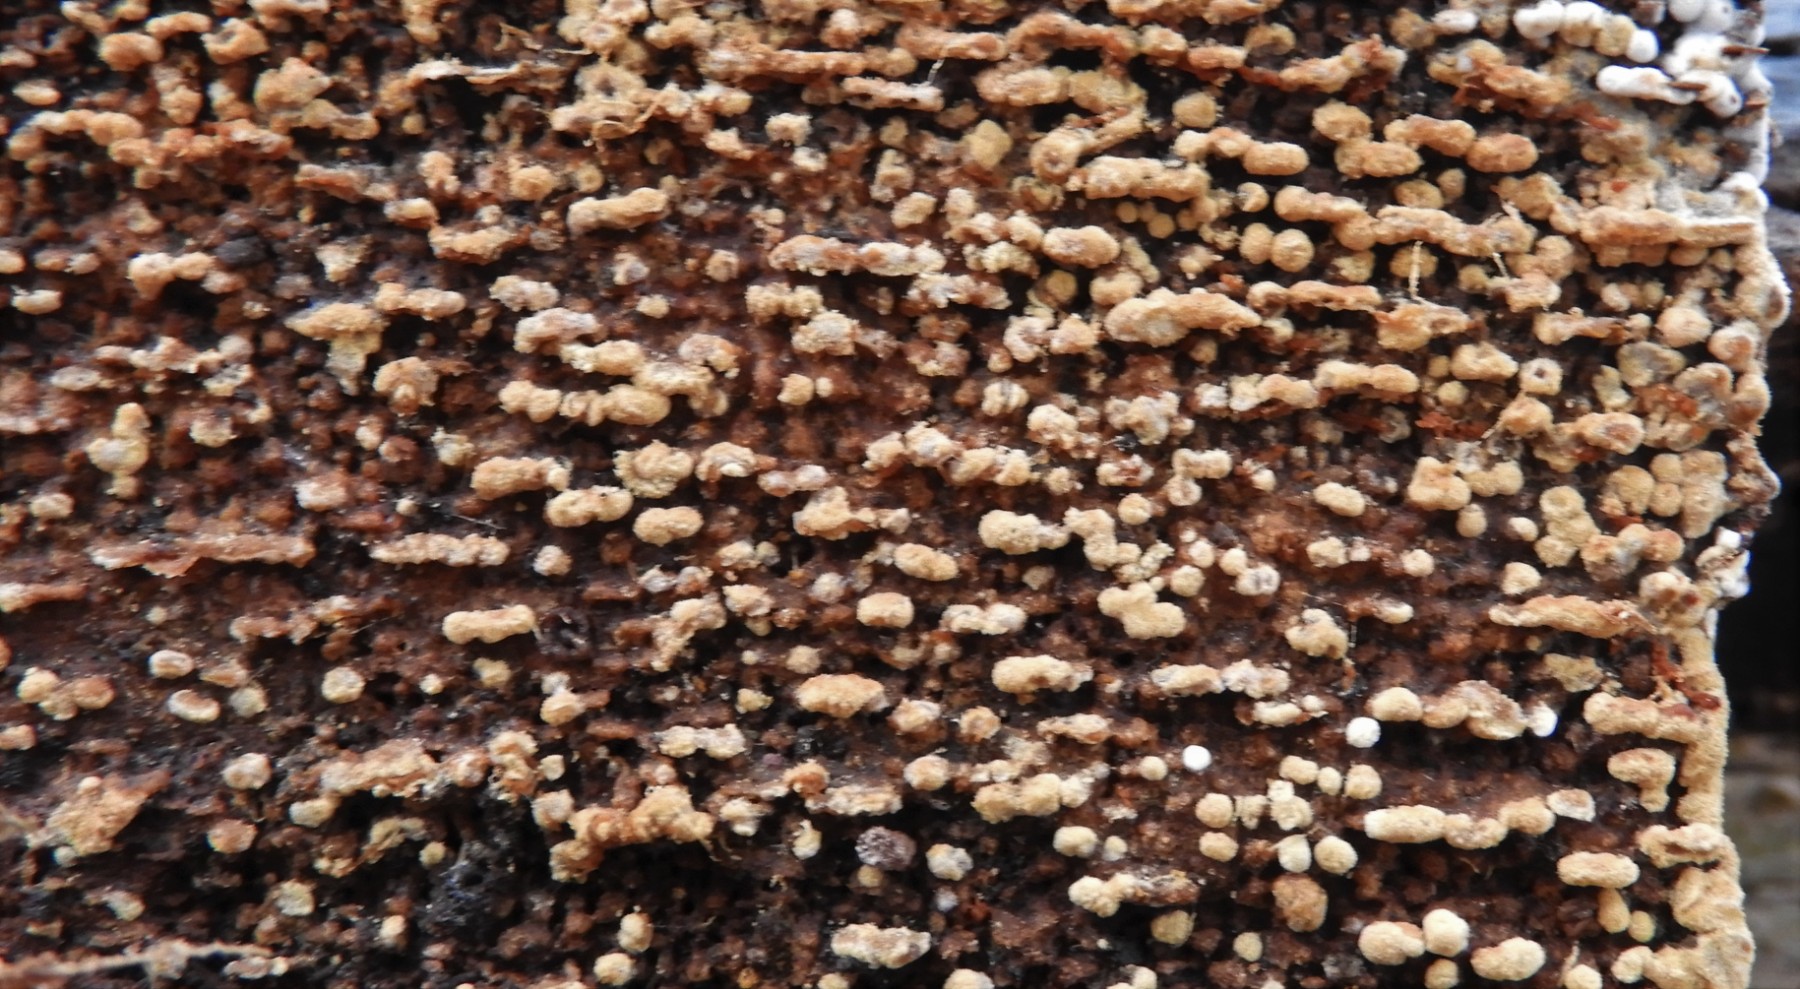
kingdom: Fungi
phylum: Basidiomycota
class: Agaricomycetes
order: Cantharellales
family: Botryobasidiaceae
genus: Botryobasidium
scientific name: Botryobasidium aureum
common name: gylden spindhinde
